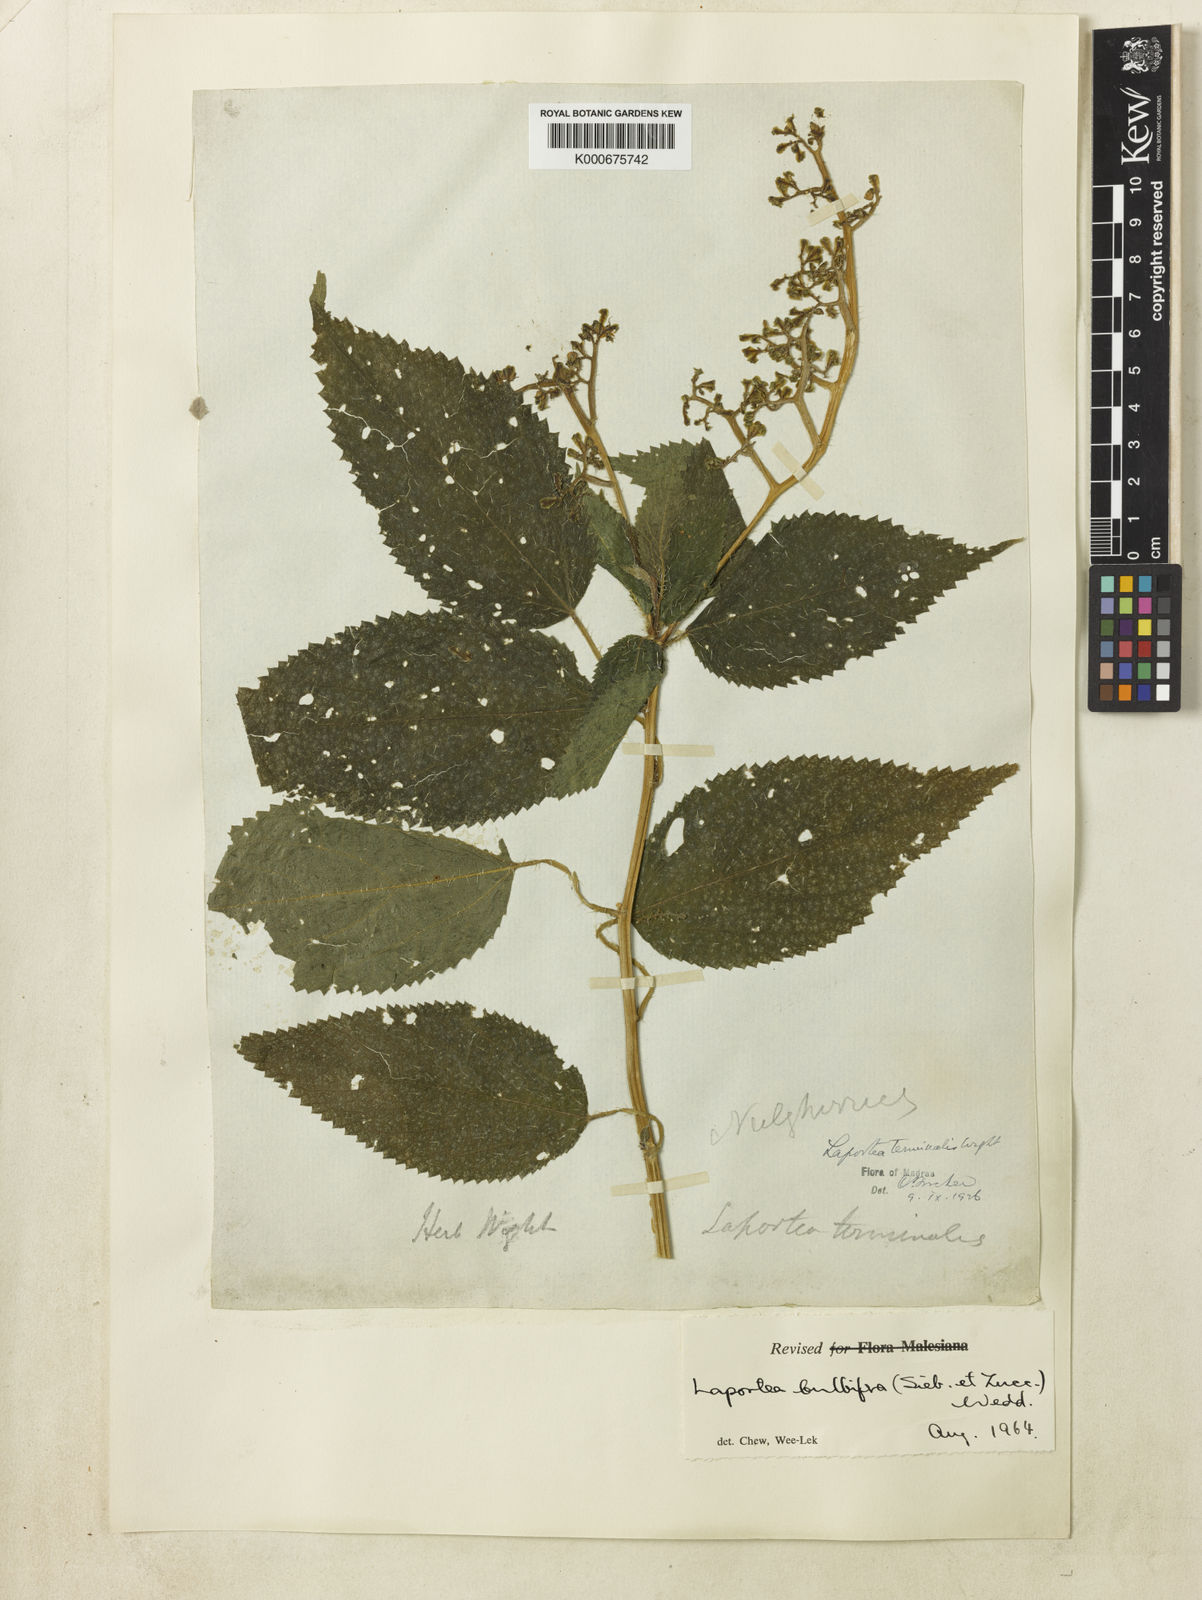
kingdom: Plantae
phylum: Tracheophyta
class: Magnoliopsida
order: Rosales
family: Urticaceae
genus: Laportea
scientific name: Laportea bulbifera
